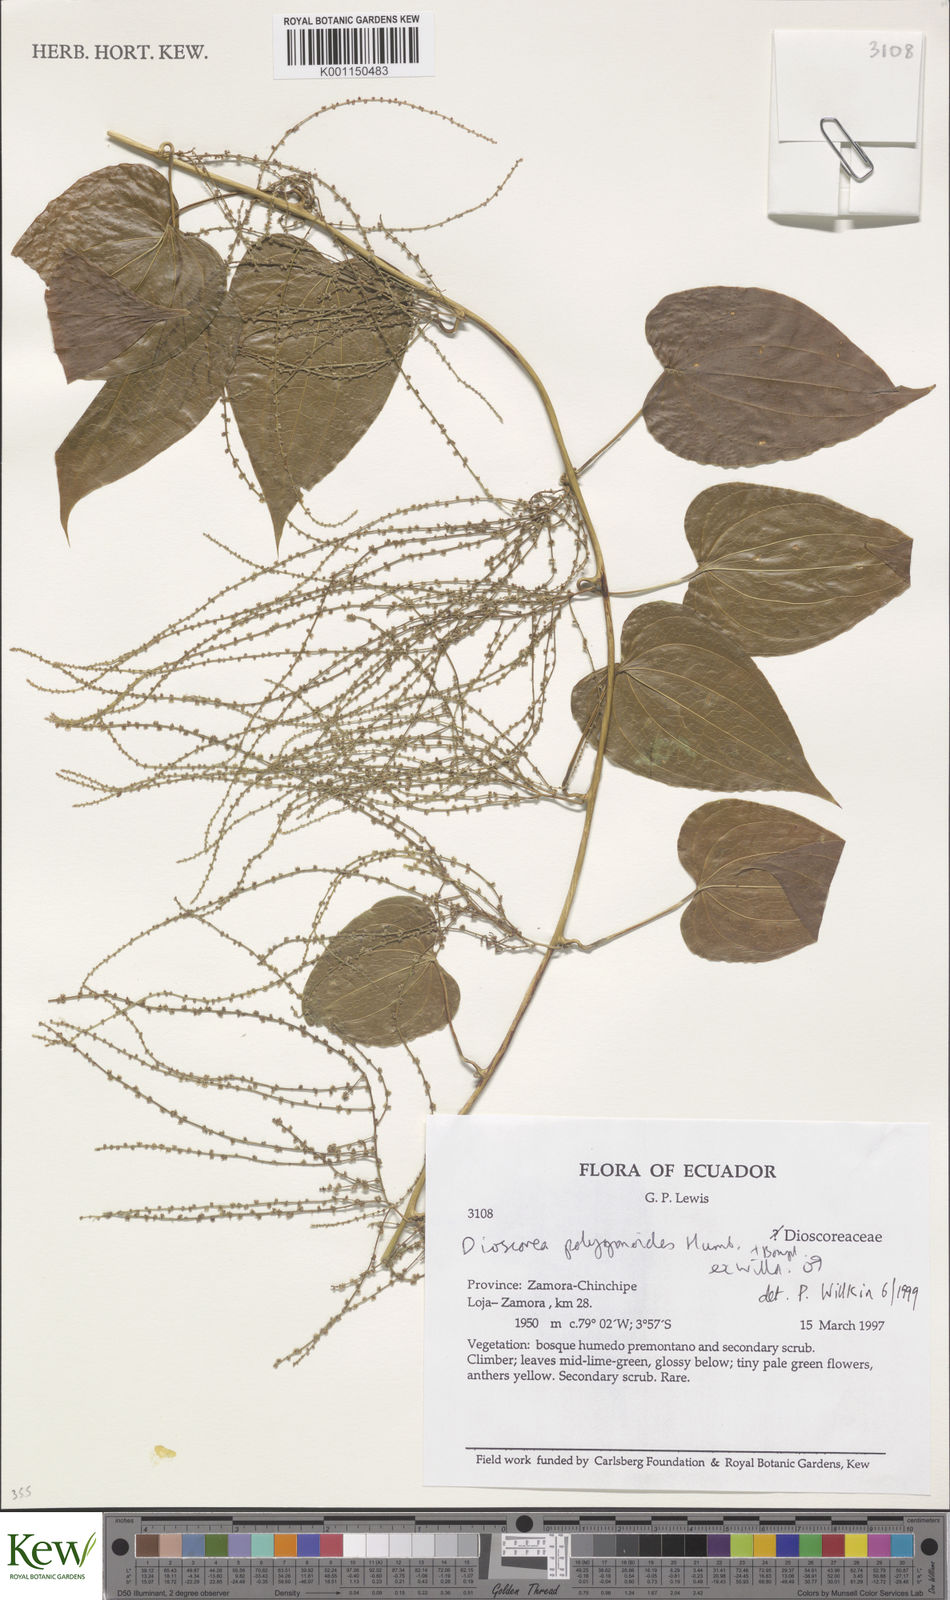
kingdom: Plantae
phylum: Tracheophyta
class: Liliopsida
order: Dioscoreales
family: Dioscoreaceae
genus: Dioscorea
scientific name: Dioscorea polygonoides
